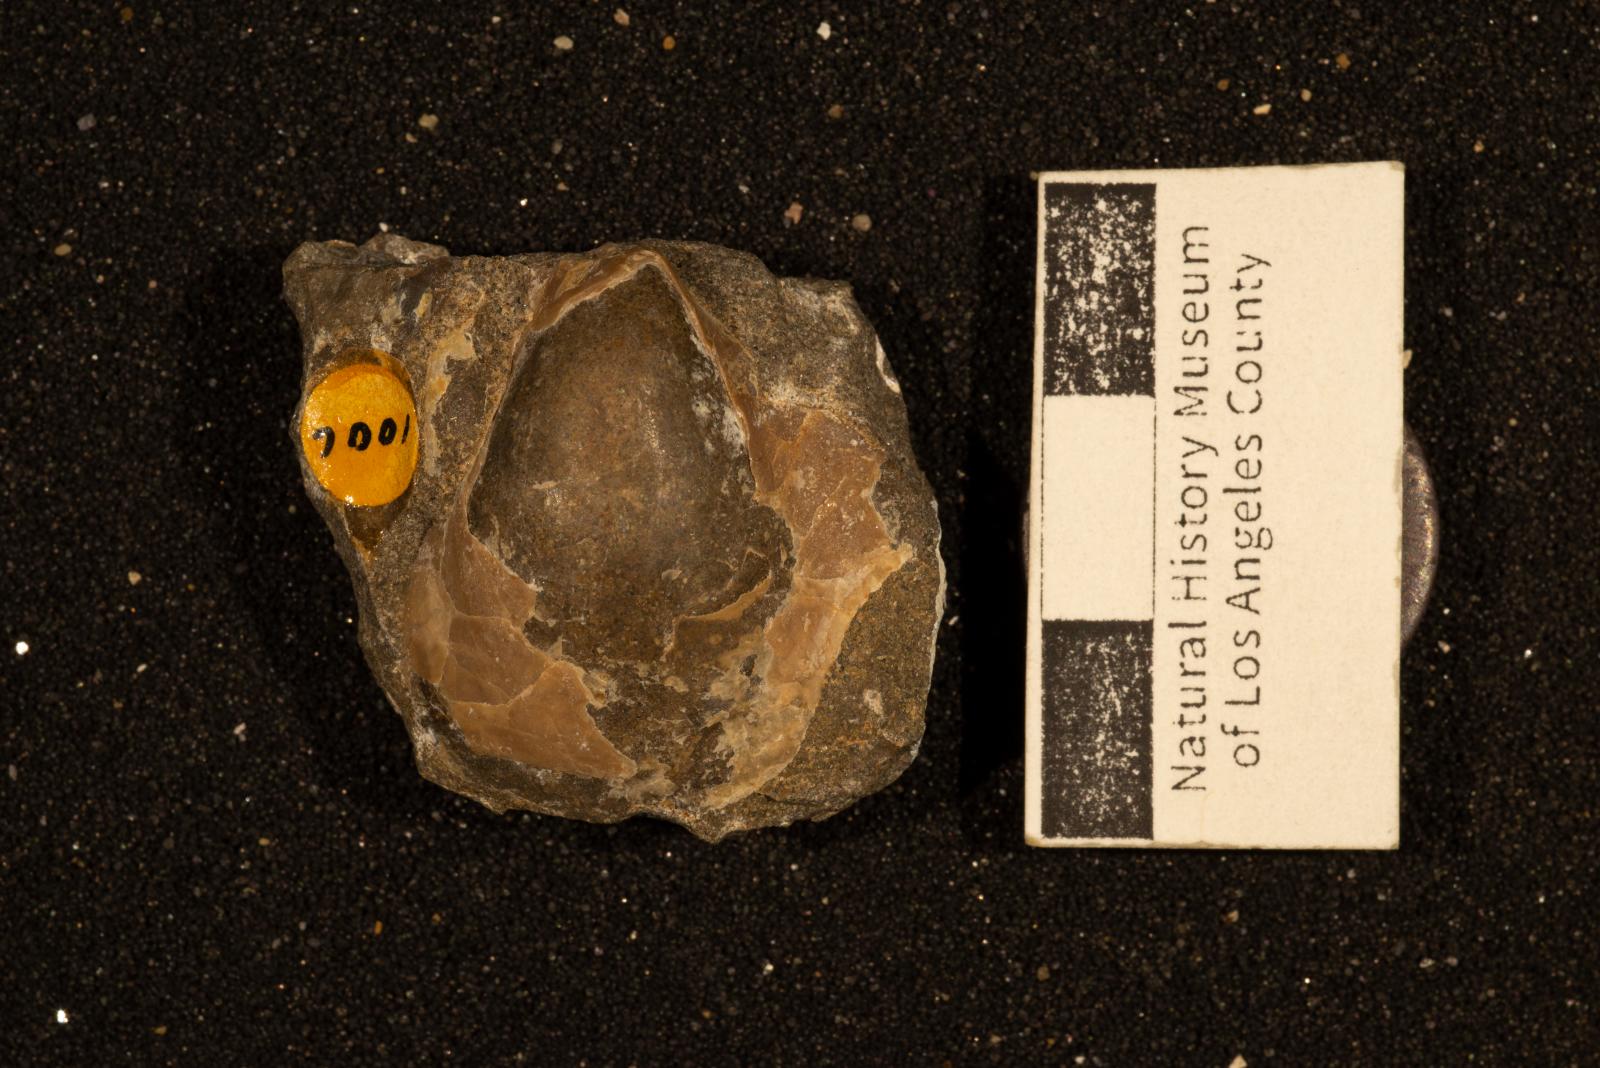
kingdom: Animalia
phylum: Mollusca
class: Bivalvia
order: Ostreida
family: Pteriidae
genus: Pteria
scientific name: Pteria pellucida
